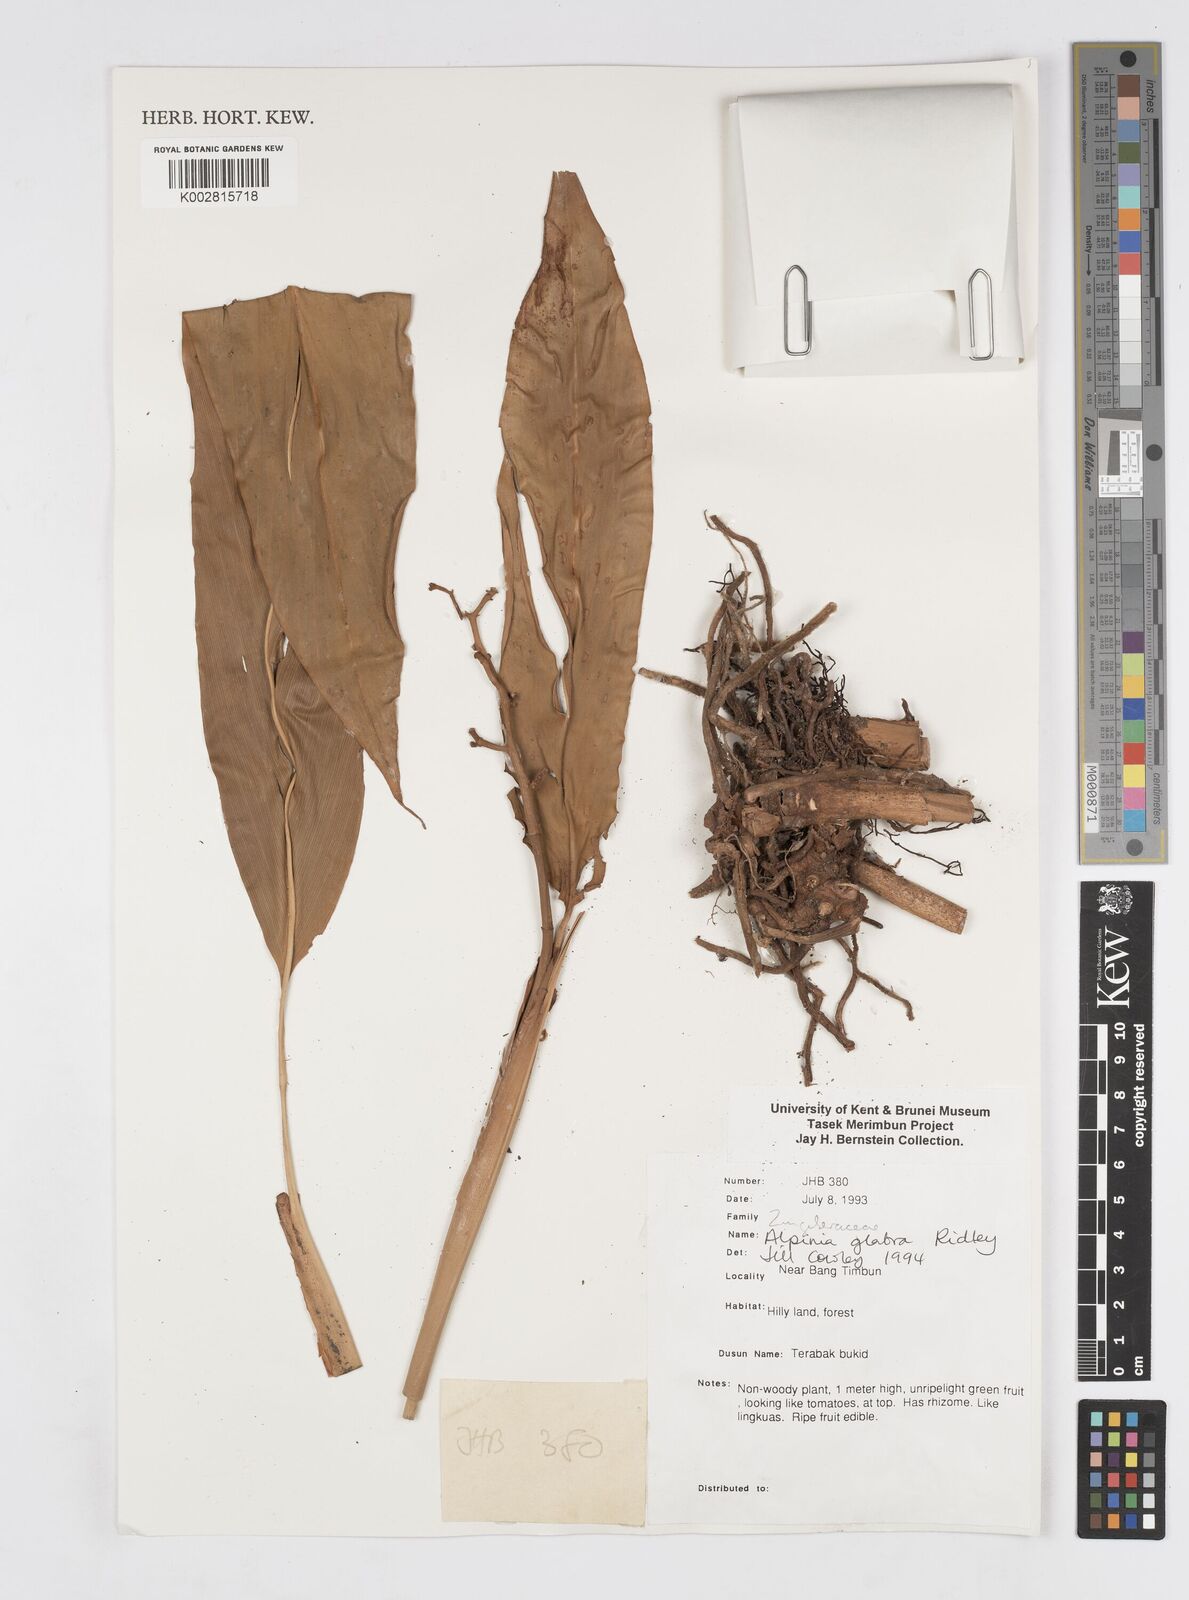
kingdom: Plantae
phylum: Tracheophyta
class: Liliopsida
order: Zingiberales
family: Zingiberaceae
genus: Alpinia
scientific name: Alpinia glabra
